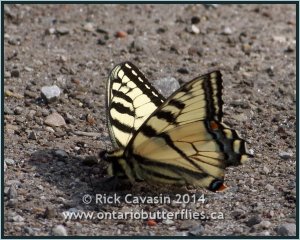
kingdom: Animalia
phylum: Arthropoda
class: Insecta
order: Lepidoptera
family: Papilionidae
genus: Pterourus
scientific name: Pterourus glaucus
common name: Eastern Tiger Swallowtail
